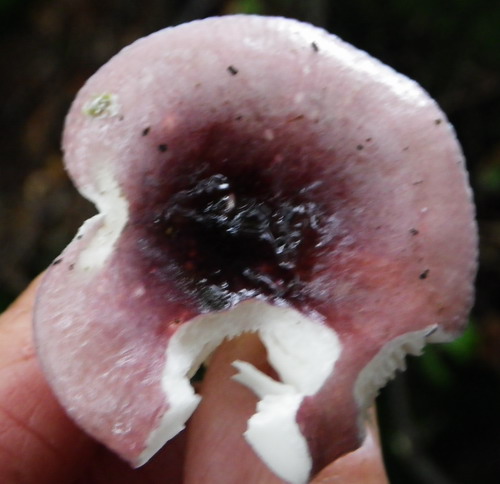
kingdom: Fungi
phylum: Basidiomycota
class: Agaricomycetes
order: Russulales
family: Russulaceae
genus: Russula
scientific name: Russula fragilis
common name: Fragile brittlegill
